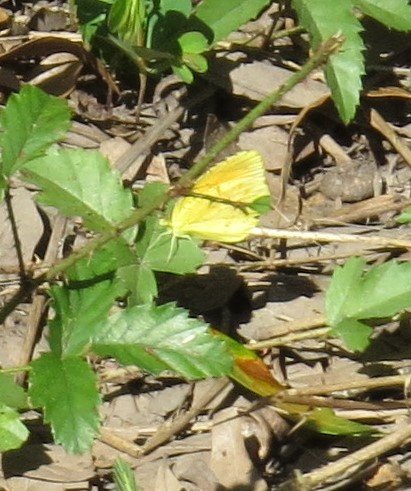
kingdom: Animalia
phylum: Arthropoda
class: Insecta
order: Lepidoptera
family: Pieridae
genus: Abaeis
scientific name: Abaeis nicippe
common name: Sleepy Orange
